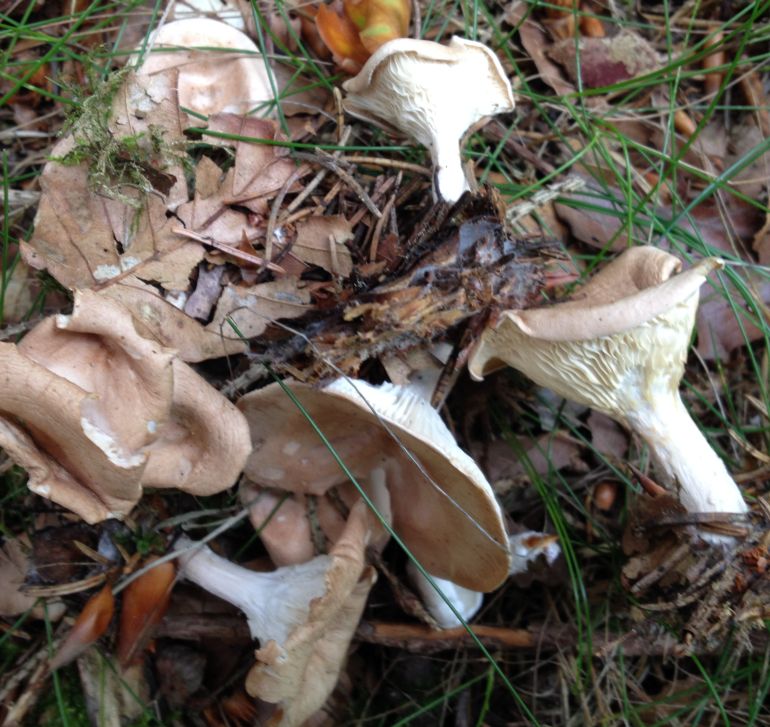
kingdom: Fungi
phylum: Basidiomycota
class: Agaricomycetes
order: Agaricales
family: Tricholomataceae
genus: Infundibulicybe
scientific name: Infundibulicybe gibba
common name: almindelig tragthat
